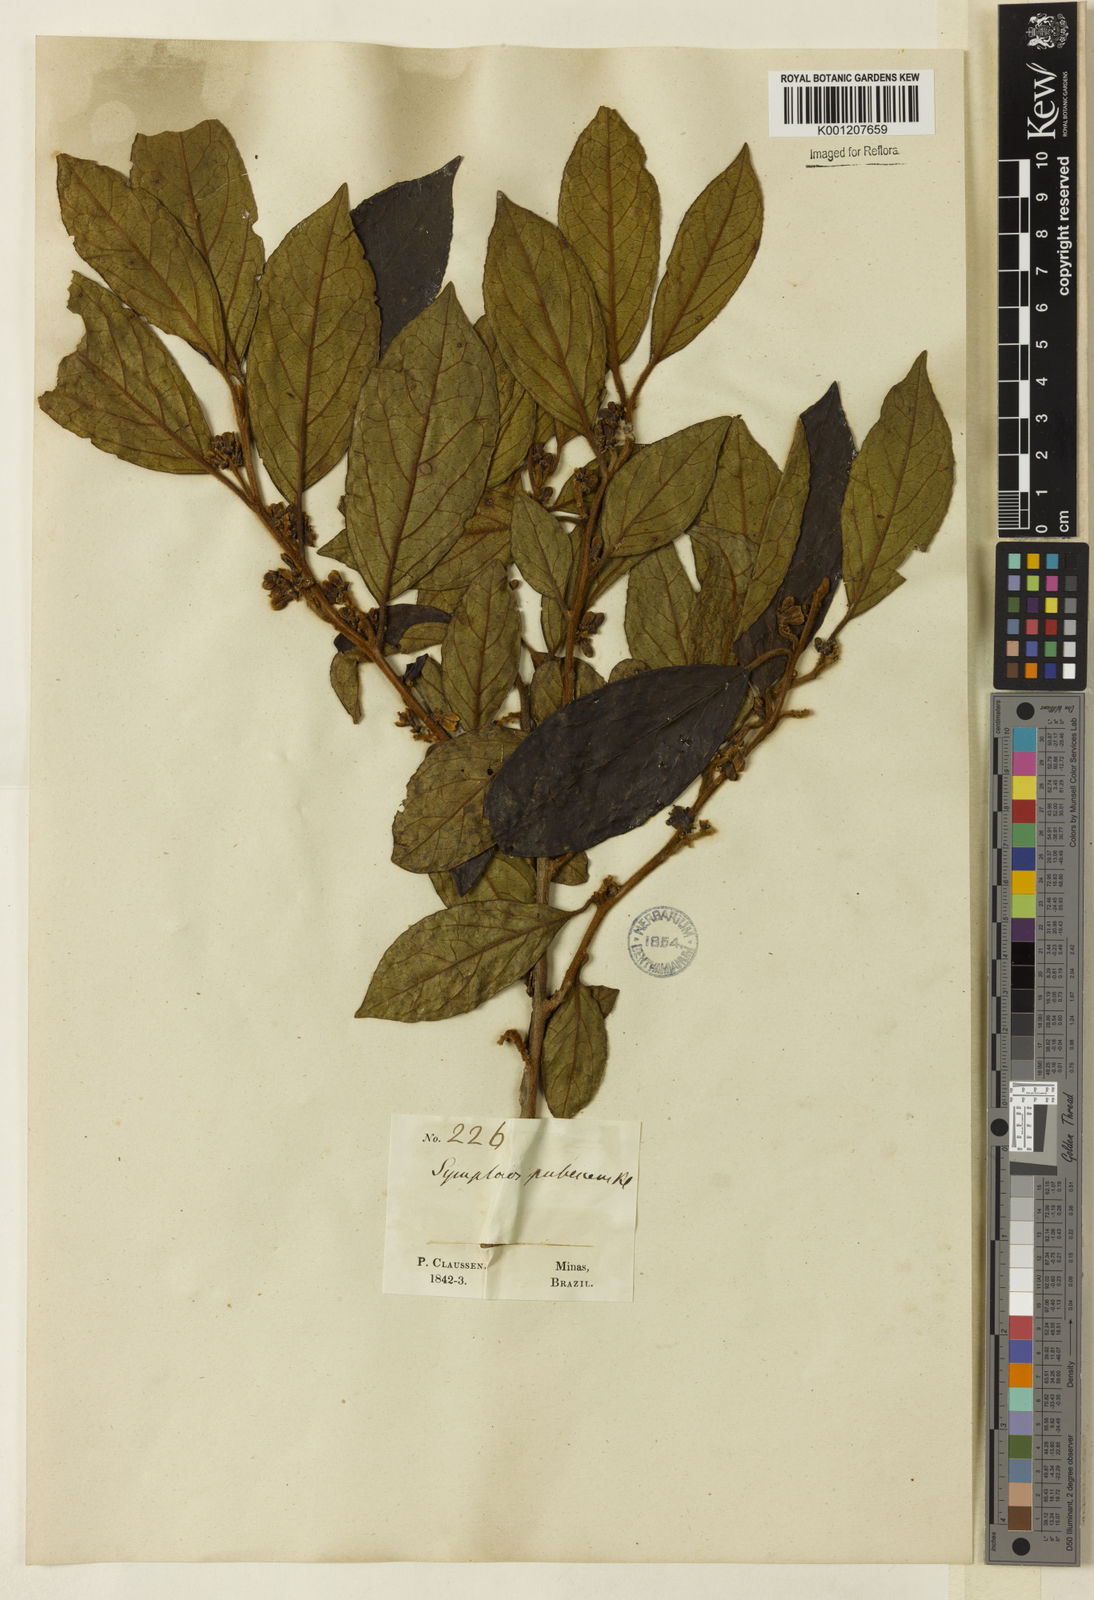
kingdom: Plantae
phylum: Tracheophyta
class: Magnoliopsida
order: Ericales
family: Symplocaceae
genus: Symplocos
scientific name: Symplocos pubescens
